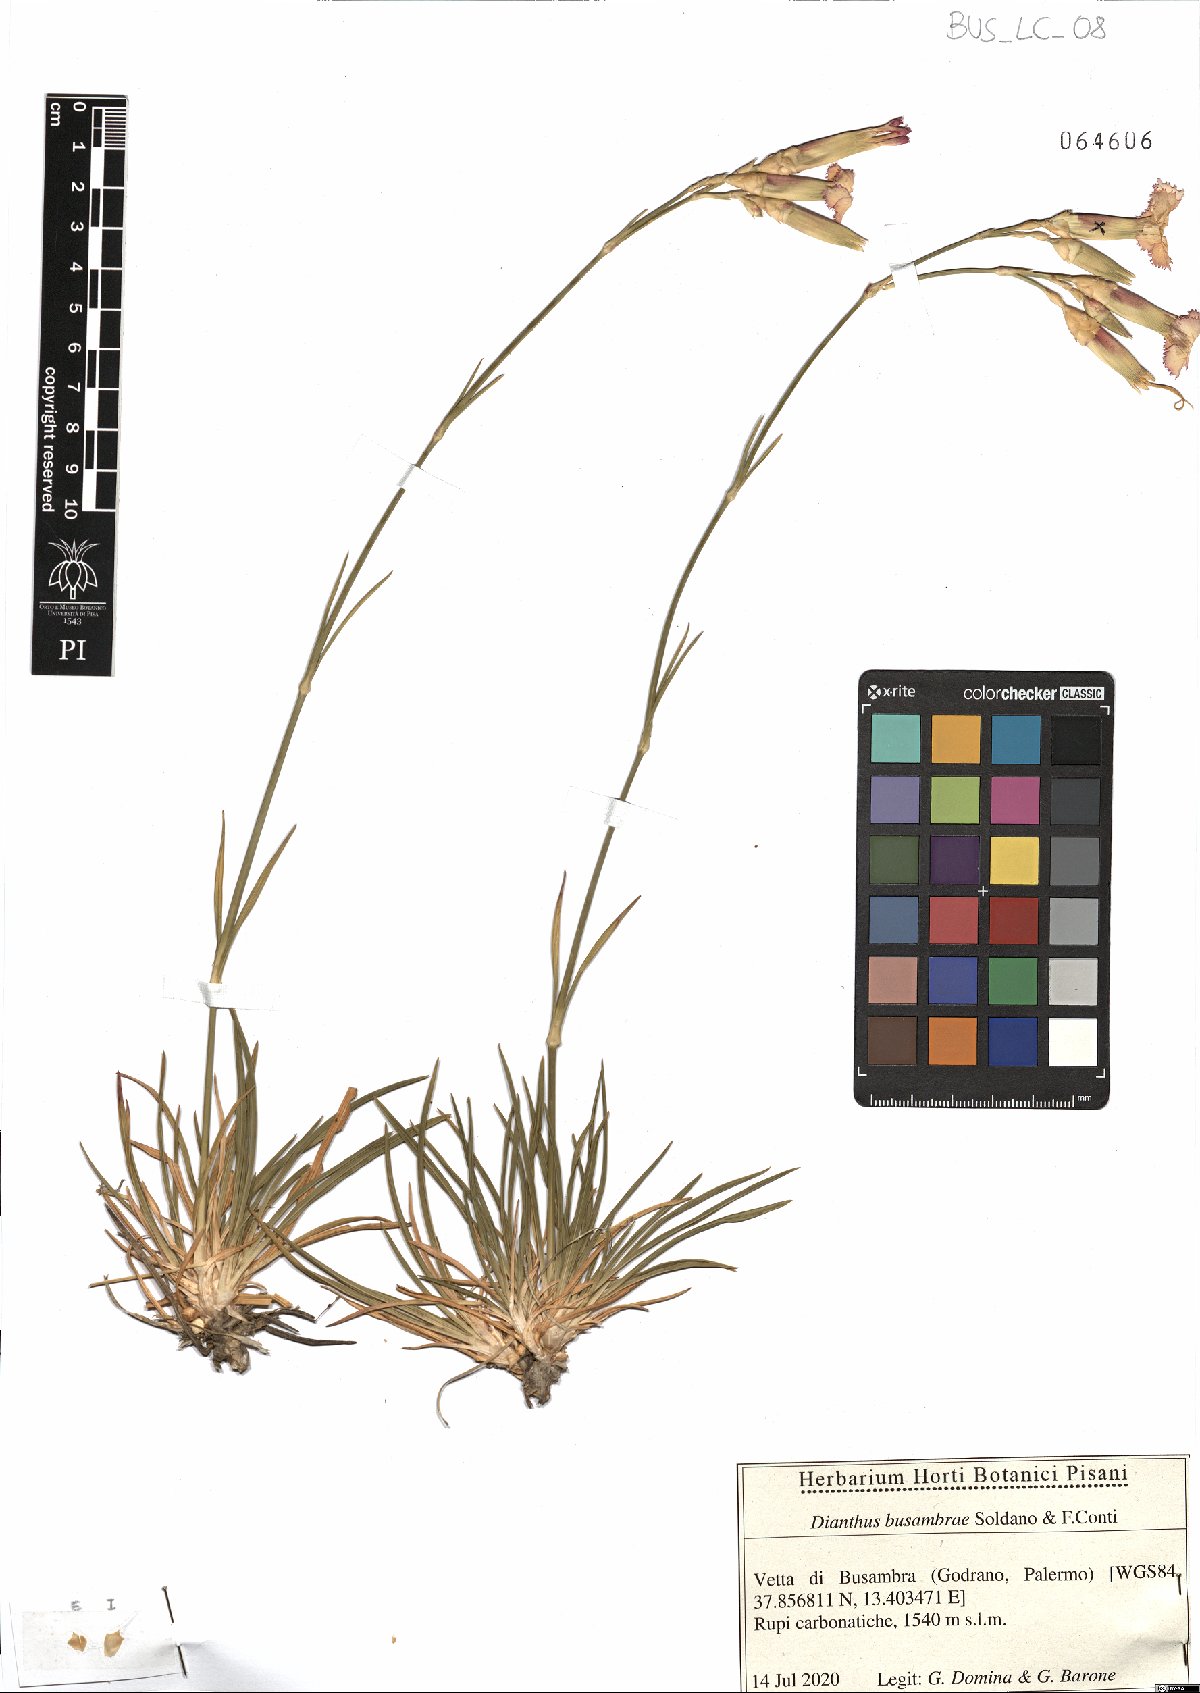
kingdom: Plantae
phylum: Tracheophyta
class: Magnoliopsida
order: Caryophyllales
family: Caryophyllaceae
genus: Dianthus
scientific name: Dianthus busambrae
